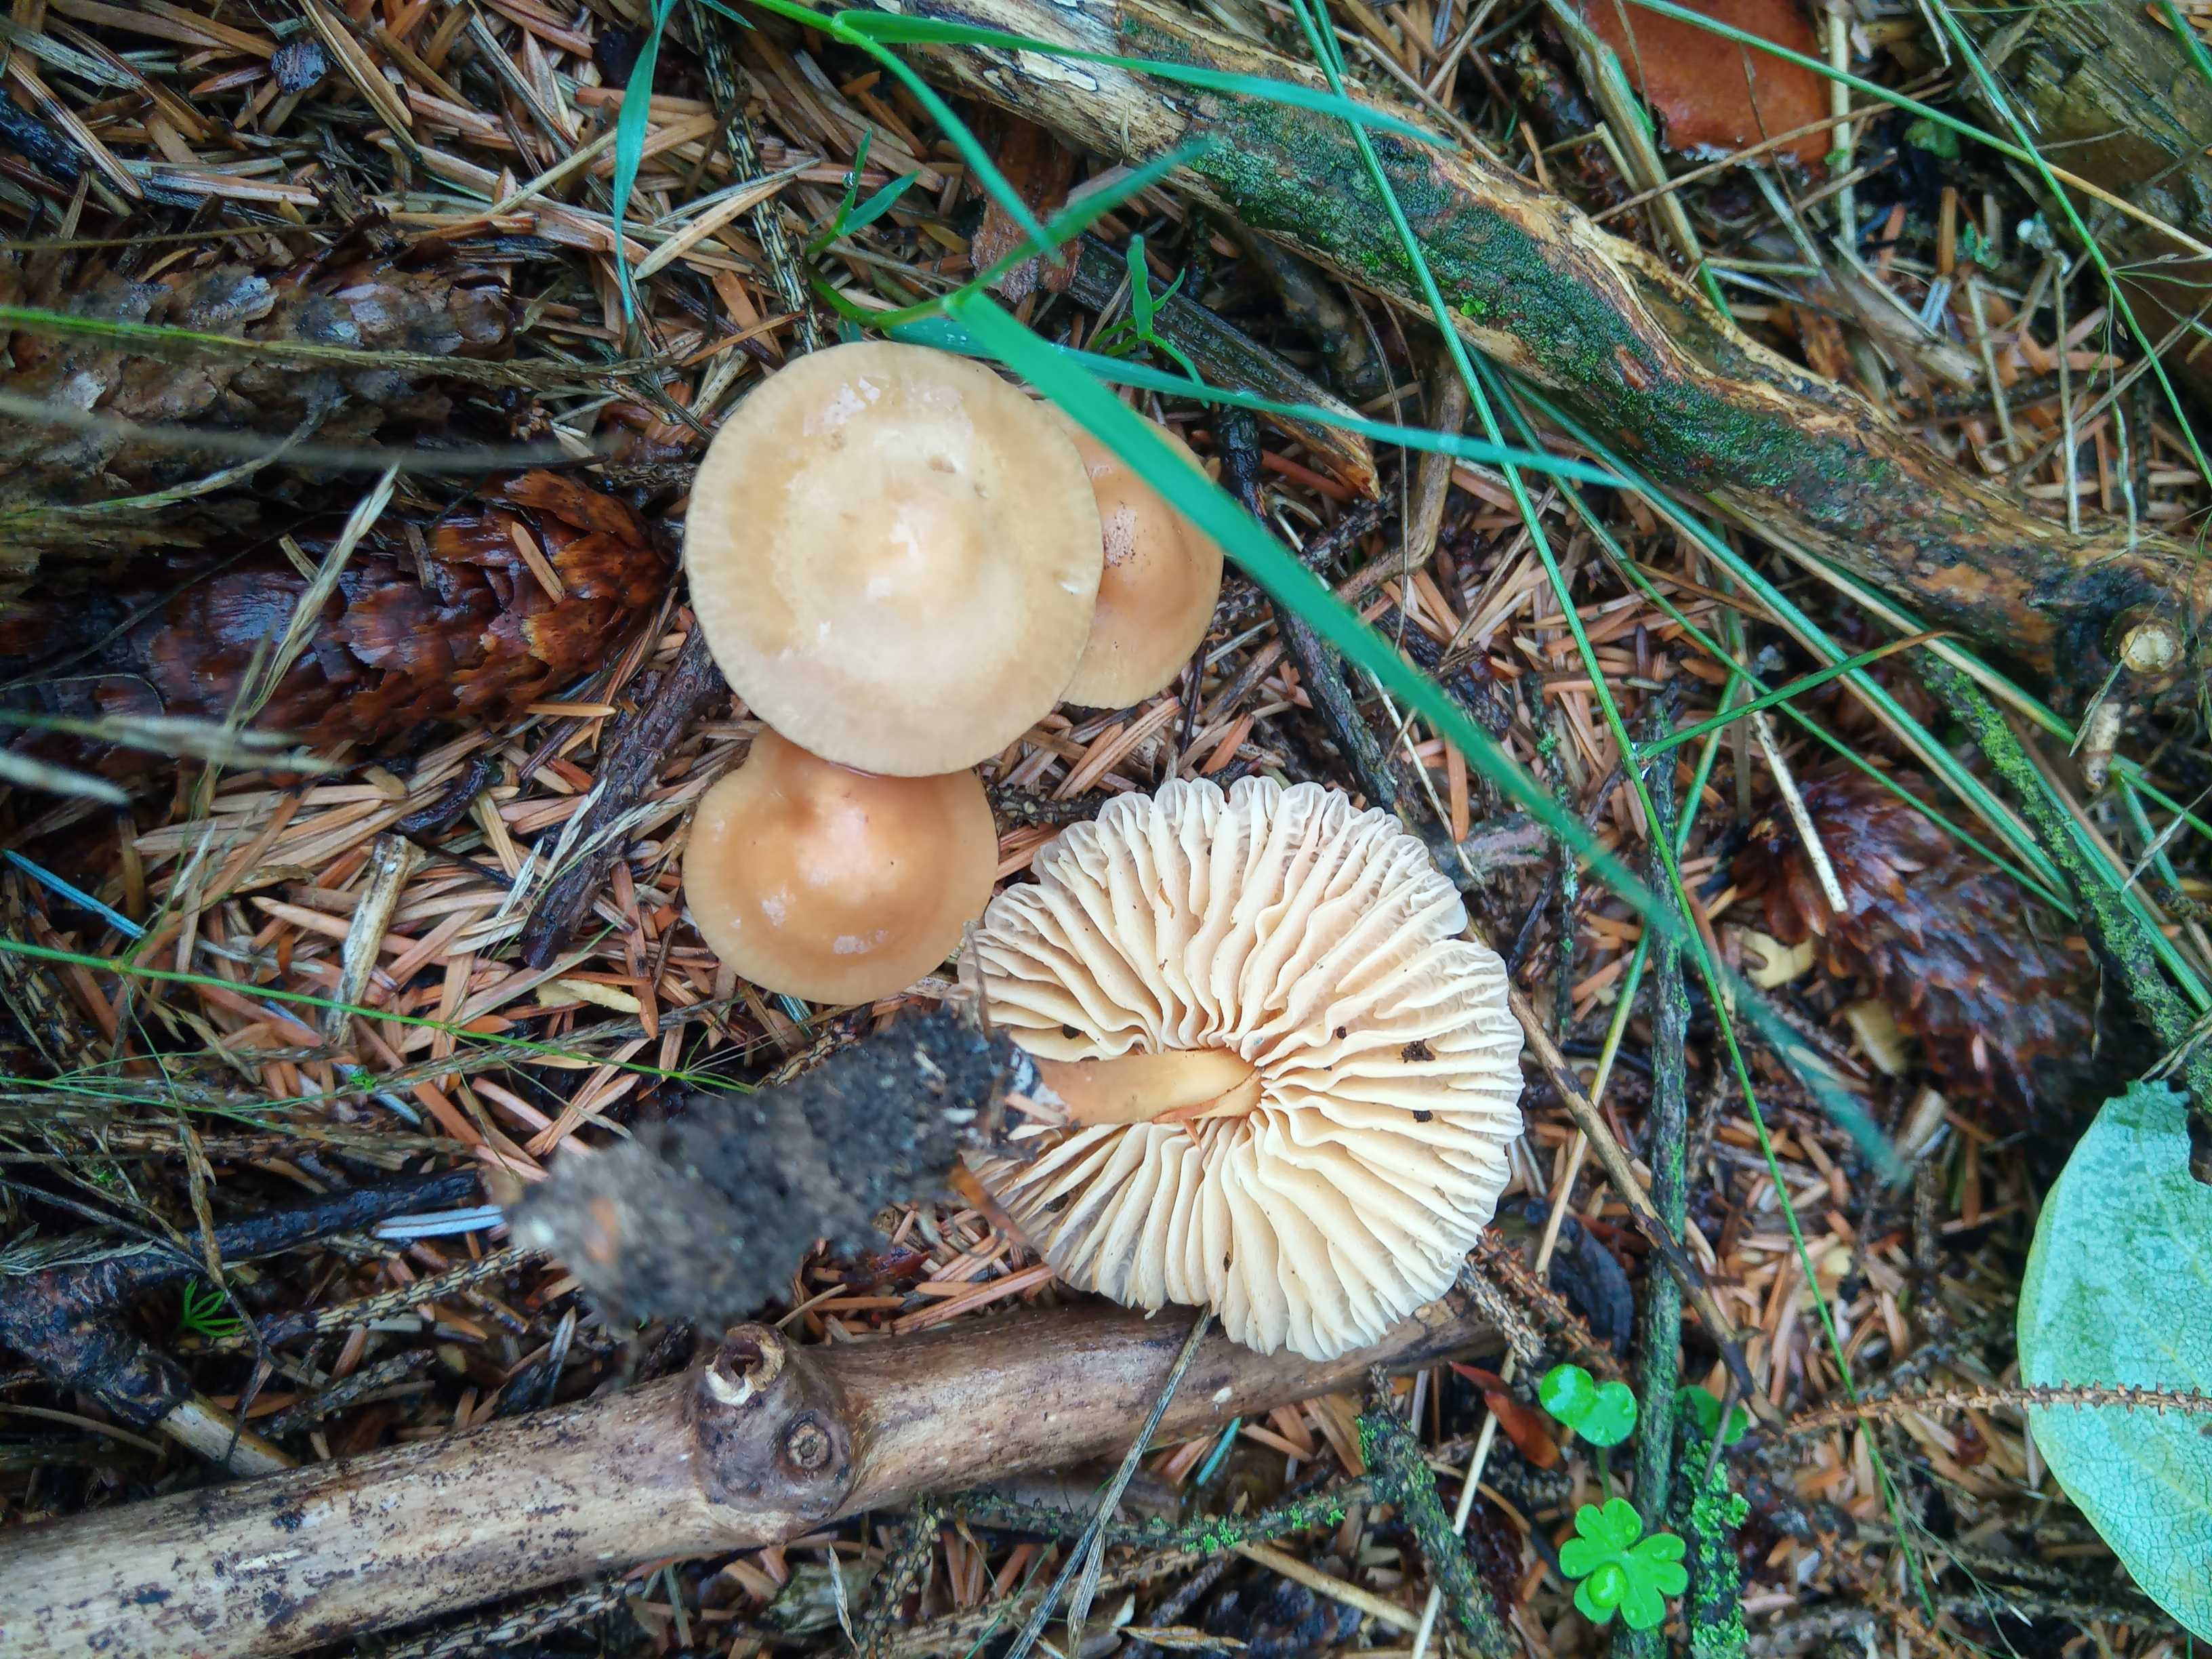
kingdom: Fungi
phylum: Basidiomycota
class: Agaricomycetes
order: Agaricales
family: Marasmiaceae
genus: Marasmius
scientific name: Marasmius oreades
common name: elledans-bruskhat
